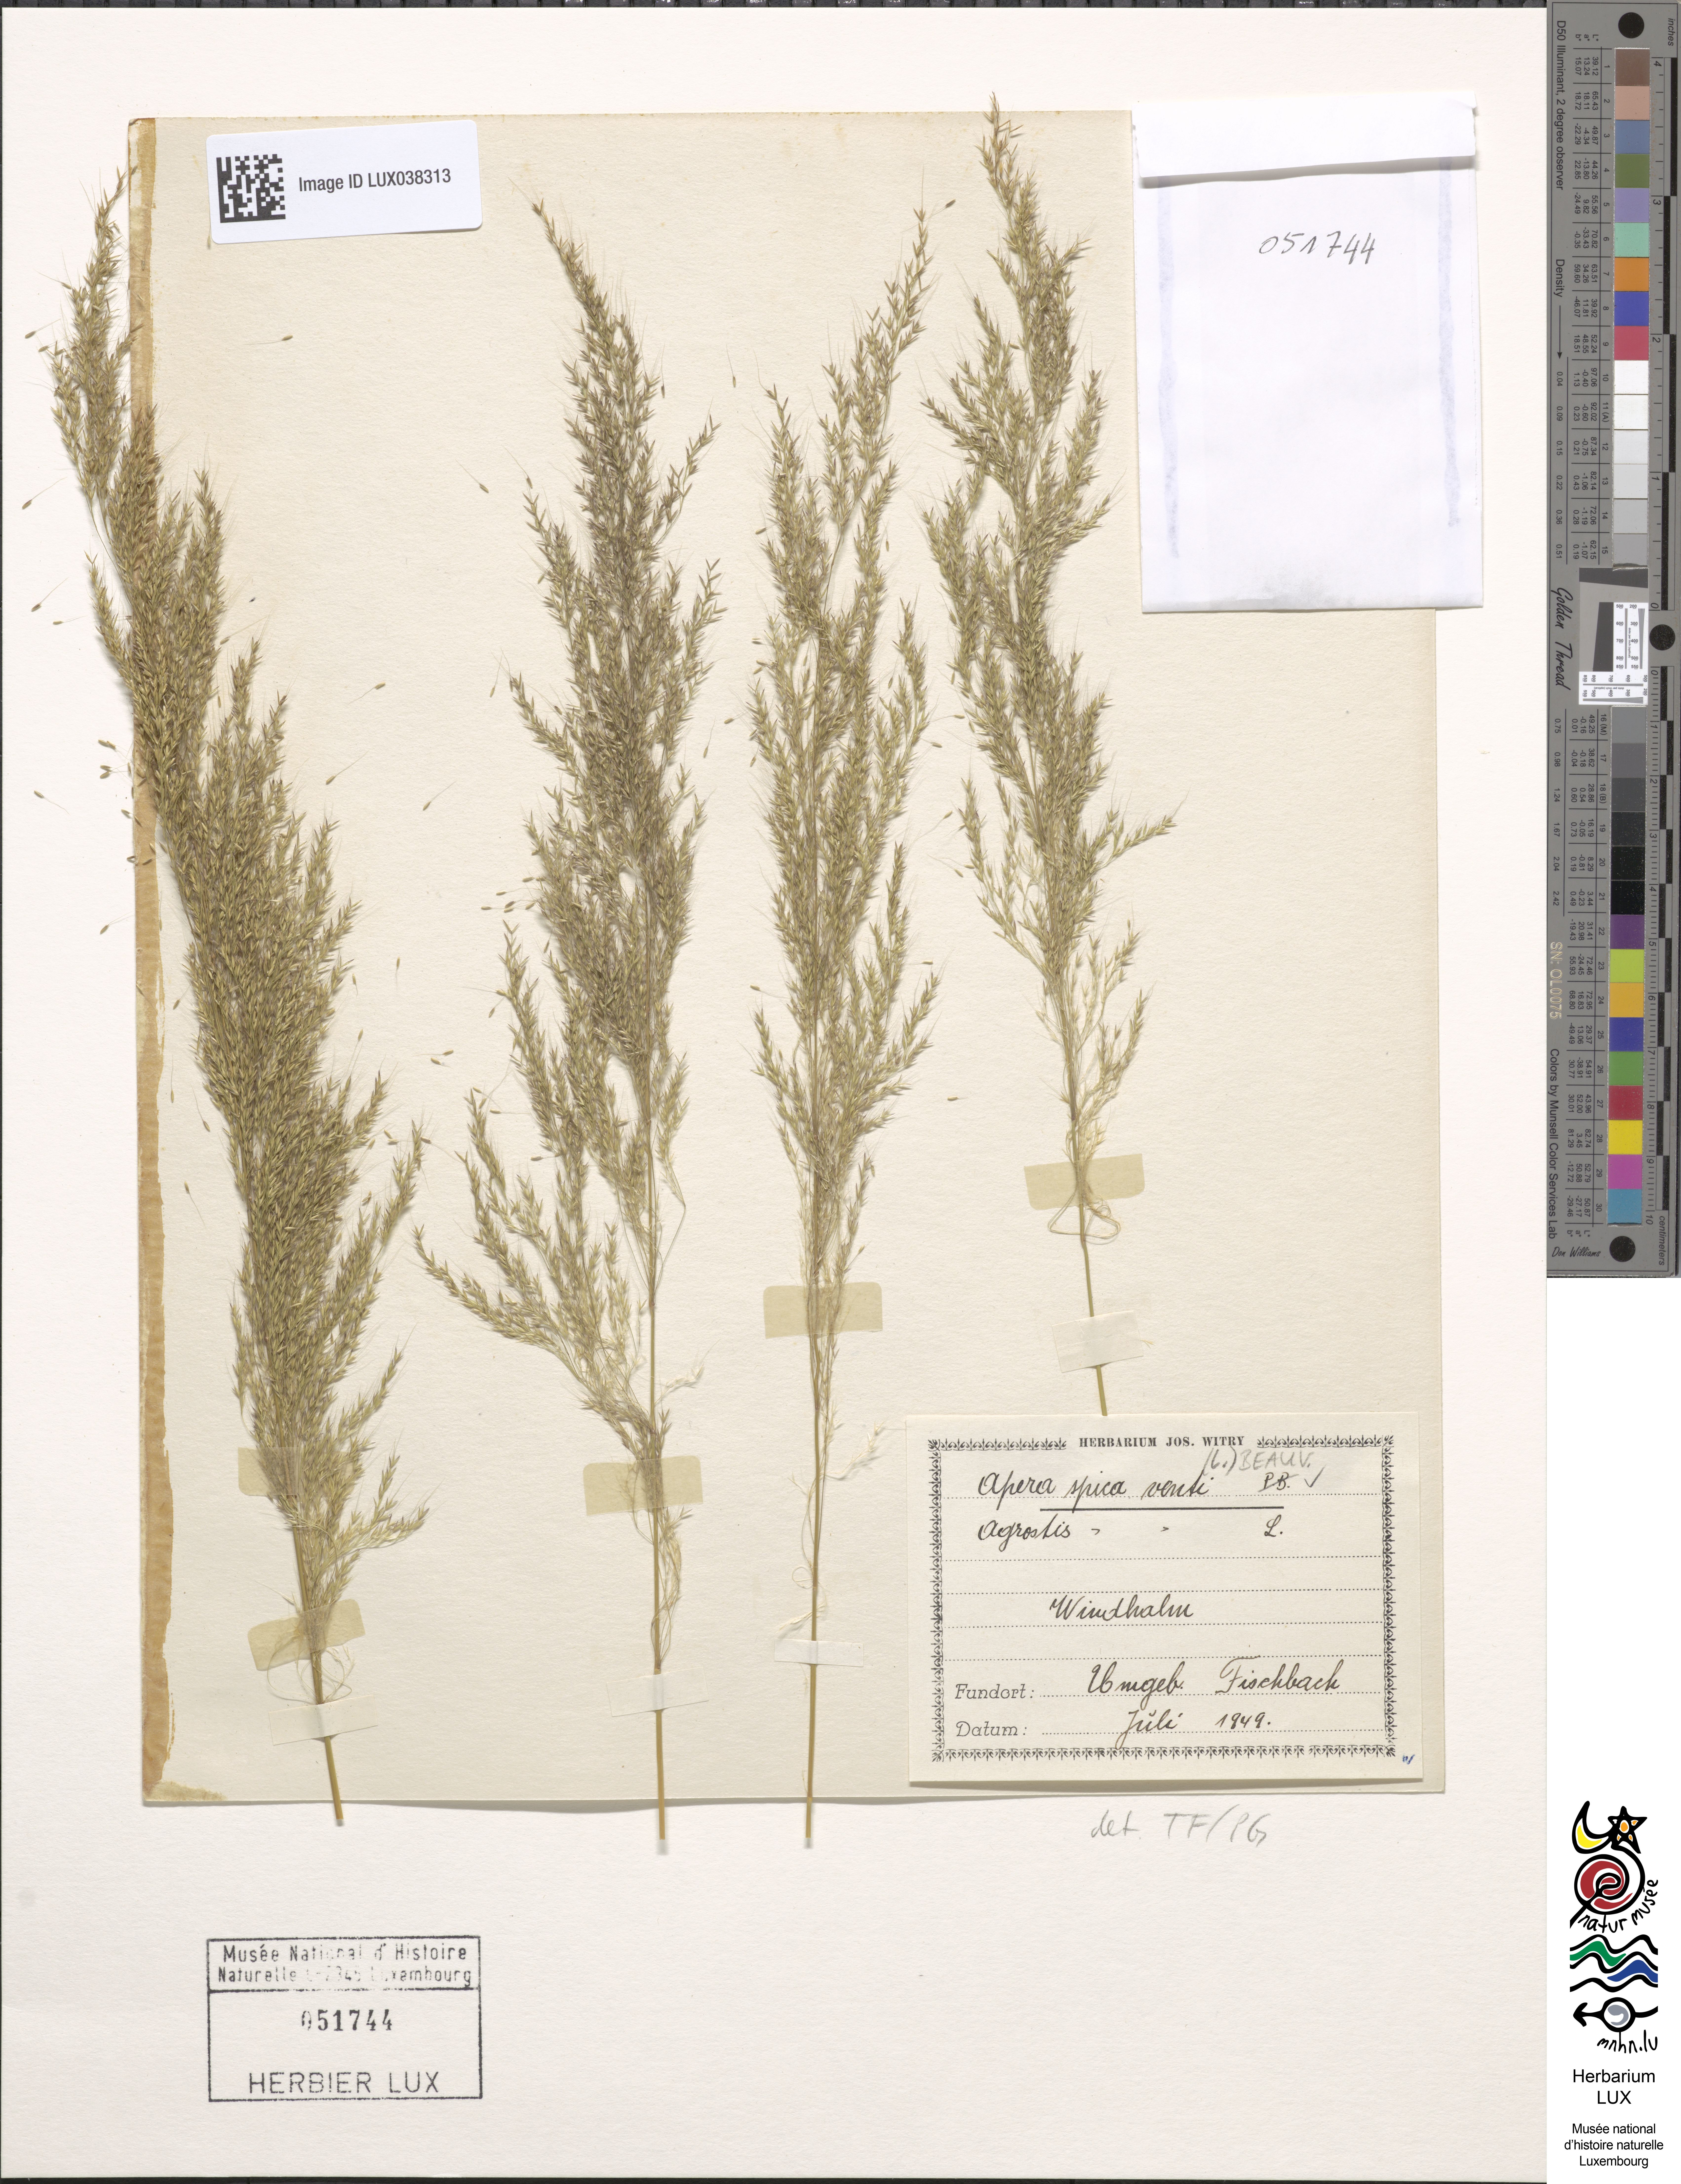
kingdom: Plantae
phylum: Tracheophyta
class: Liliopsida
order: Poales
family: Poaceae
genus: Apera
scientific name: Apera spica-venti
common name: Loose silky-bent
